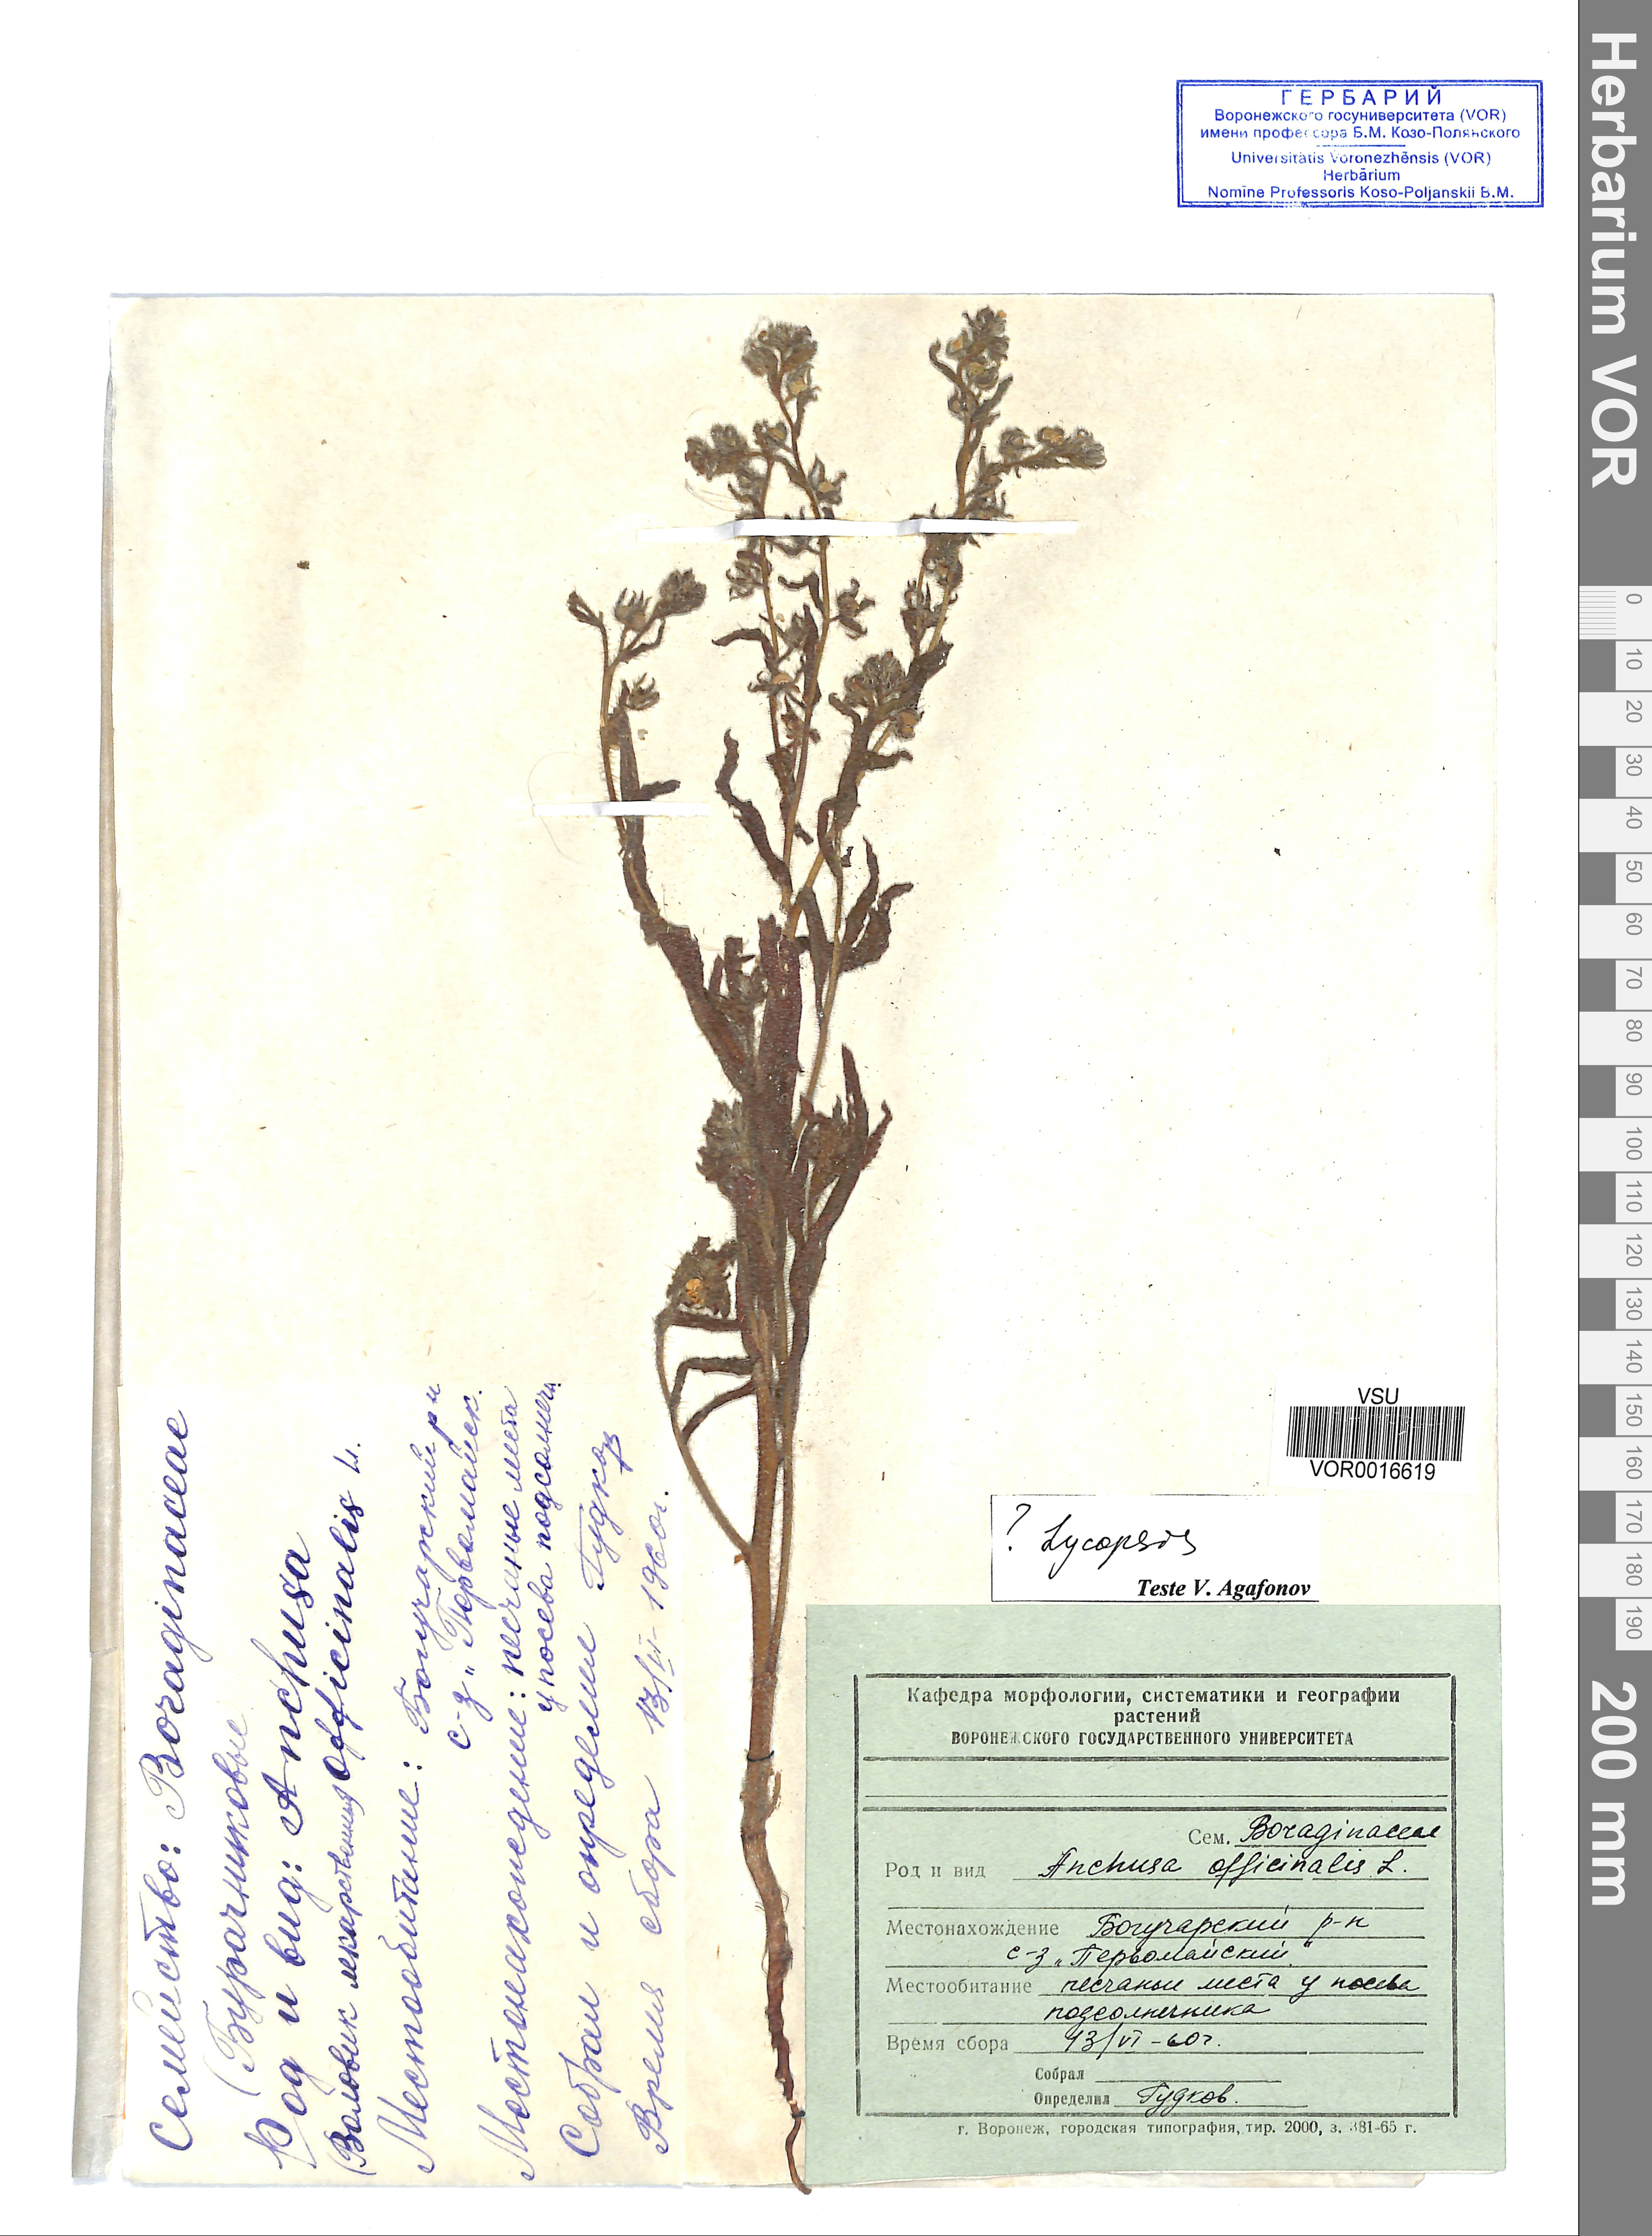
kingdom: Plantae
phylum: Tracheophyta
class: Magnoliopsida
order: Boraginales
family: Boraginaceae
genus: Anchusa
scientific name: Anchusa officinalis
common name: Alkanet
